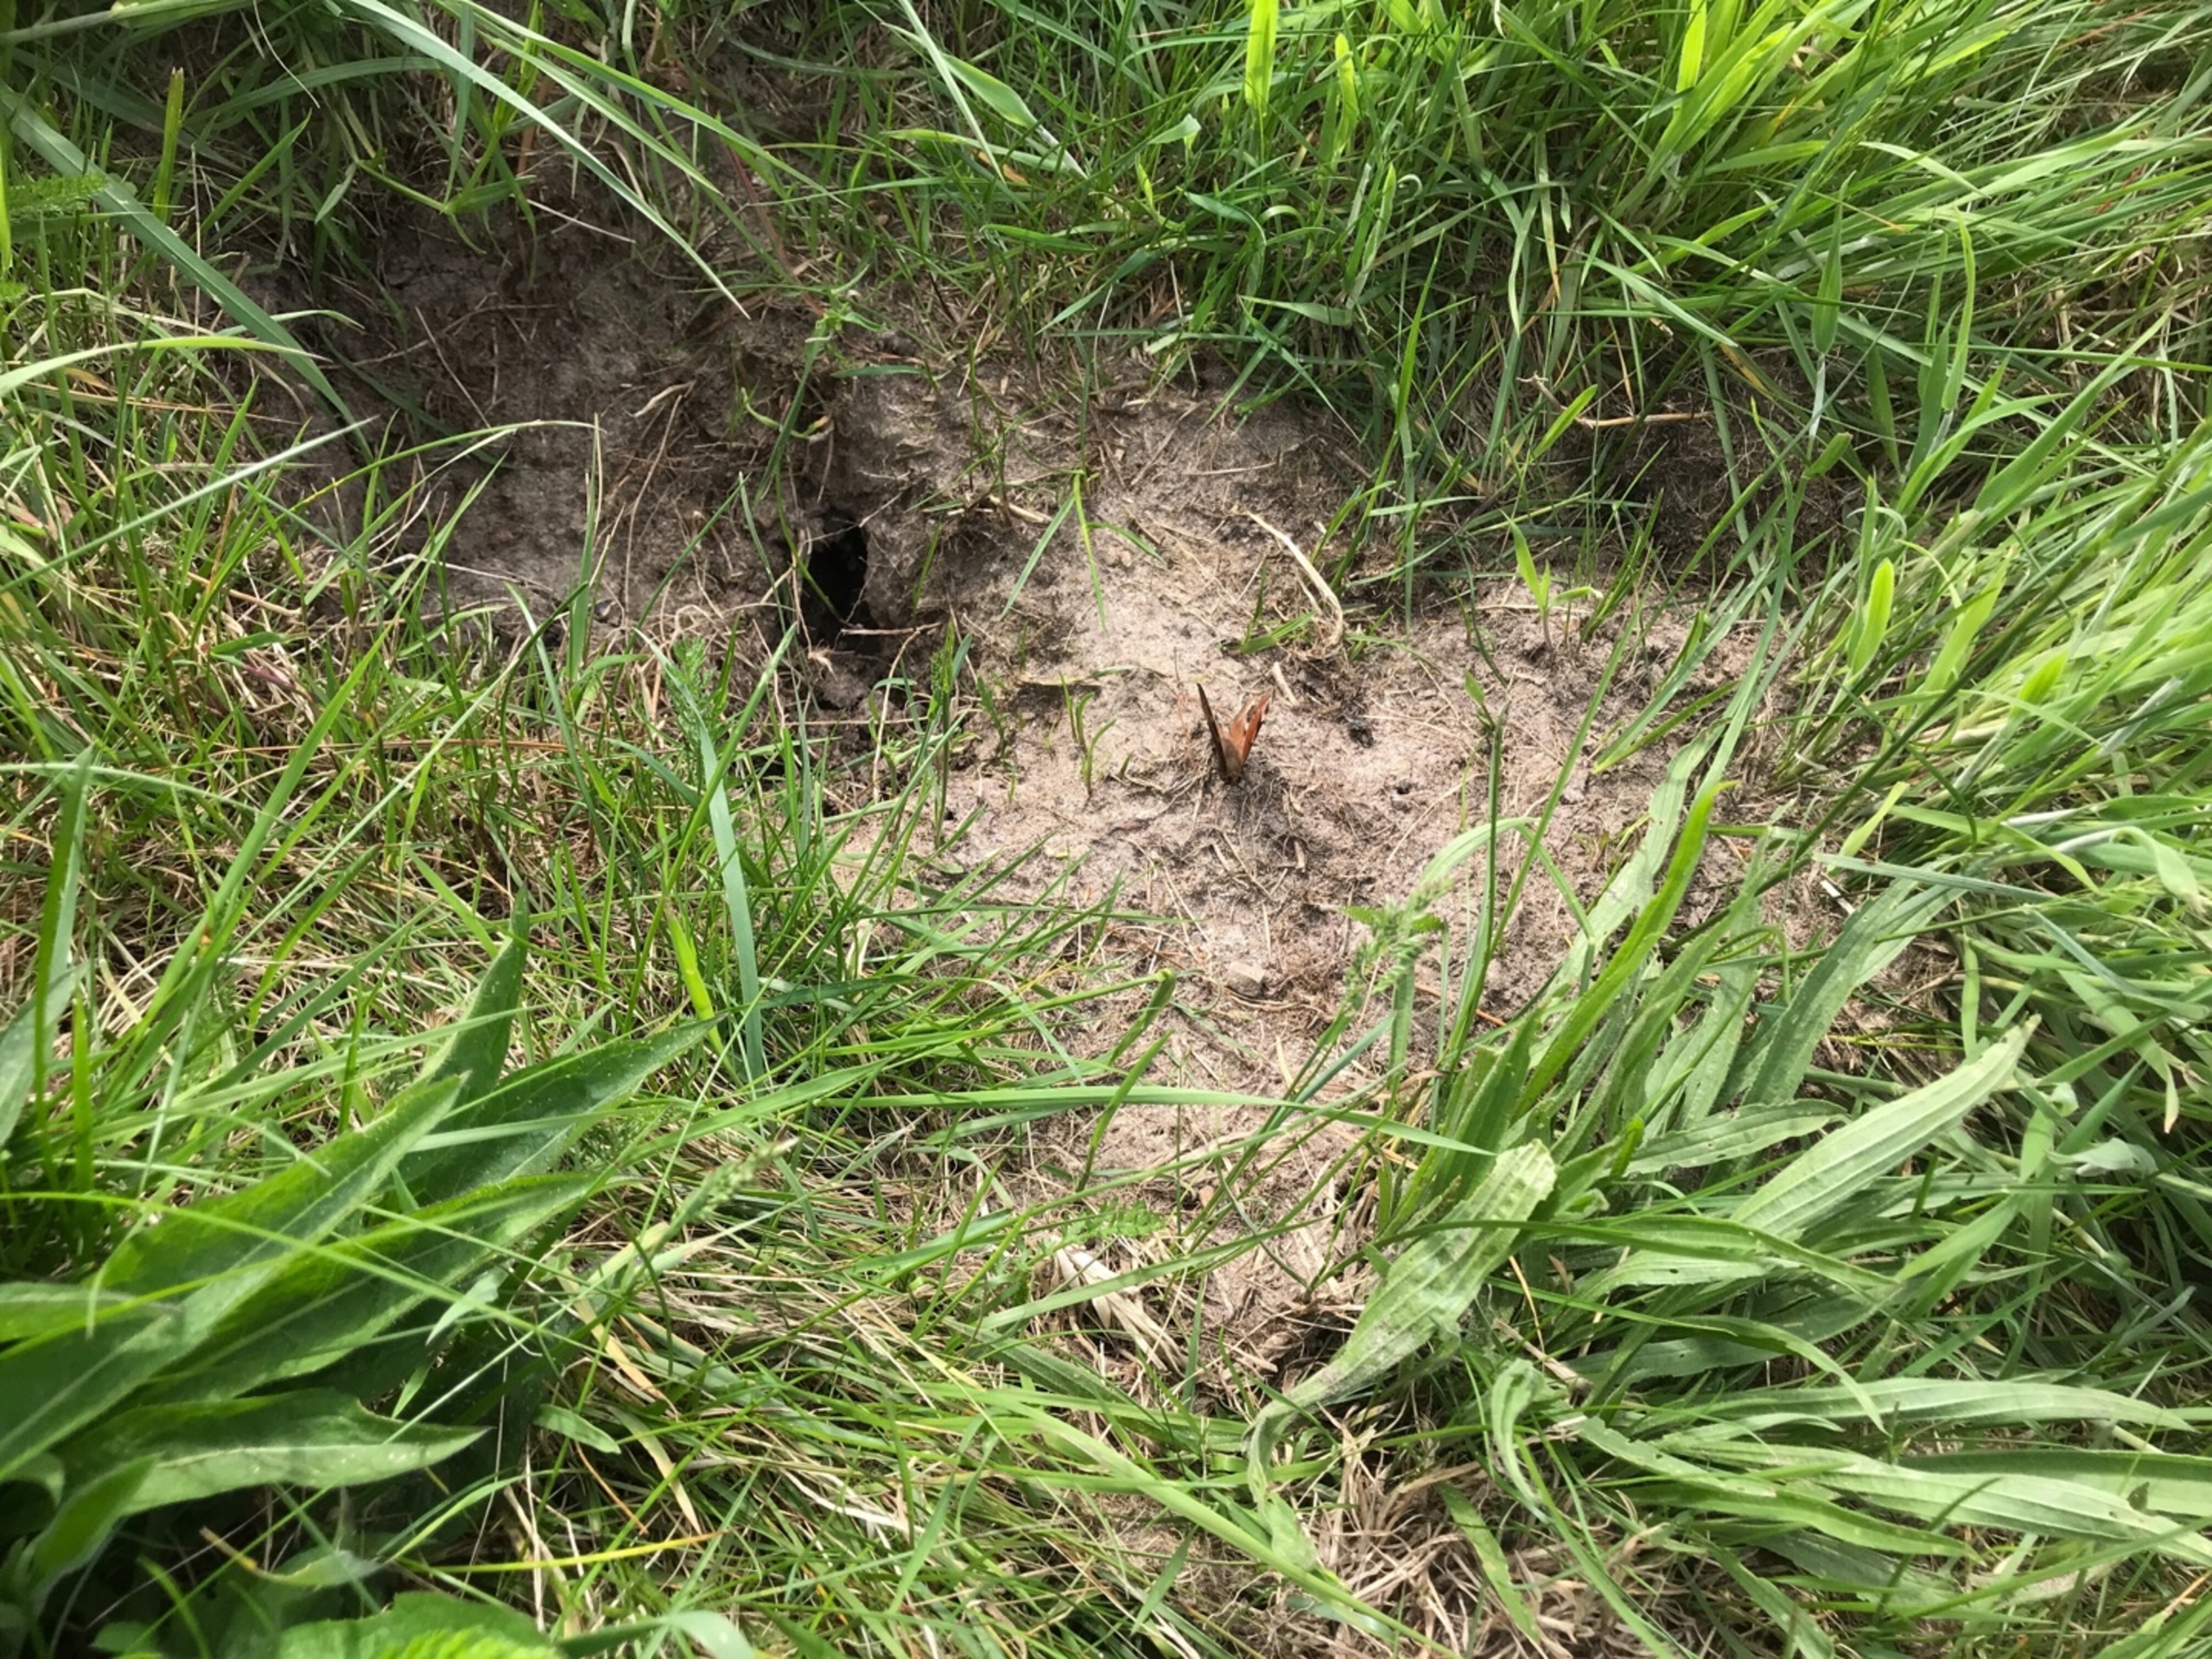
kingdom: Animalia
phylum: Arthropoda
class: Insecta
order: Lepidoptera
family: Nymphalidae
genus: Aglais
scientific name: Aglais io
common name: Dagpåfugleøje
